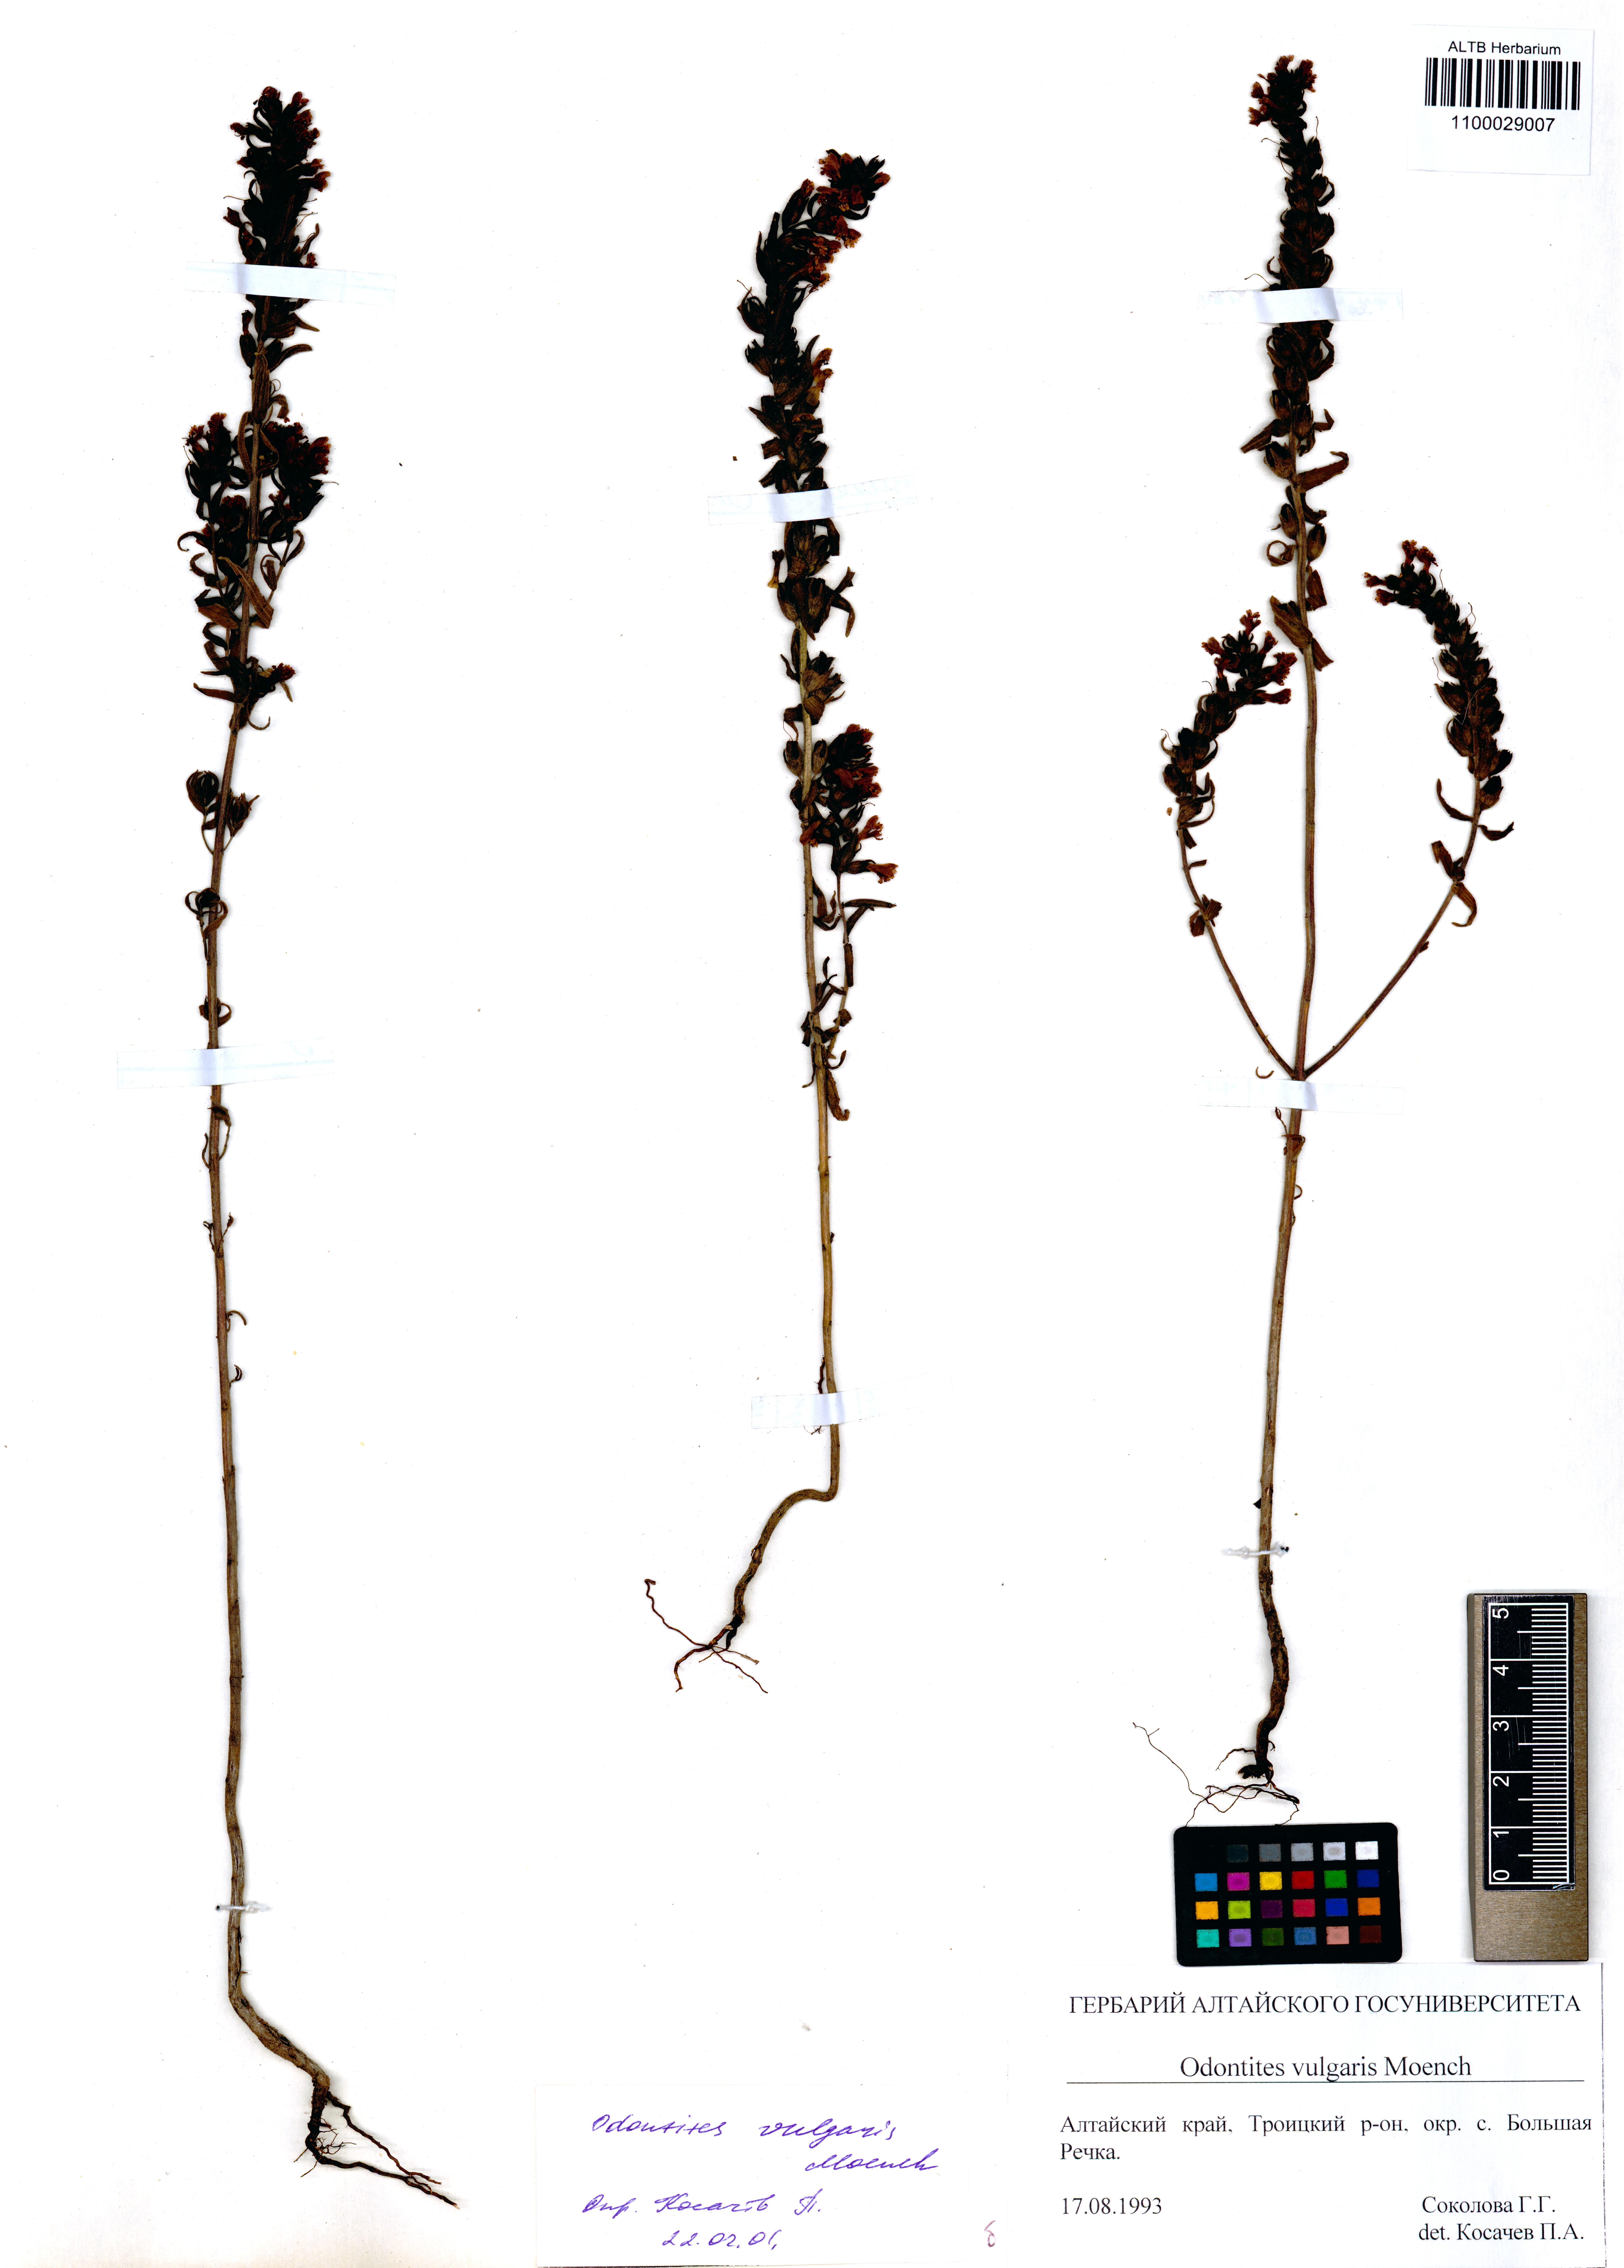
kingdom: Plantae
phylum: Tracheophyta
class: Magnoliopsida
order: Lamiales
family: Orobanchaceae
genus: Odontites
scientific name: Odontites vulgaris
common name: Broomrape
